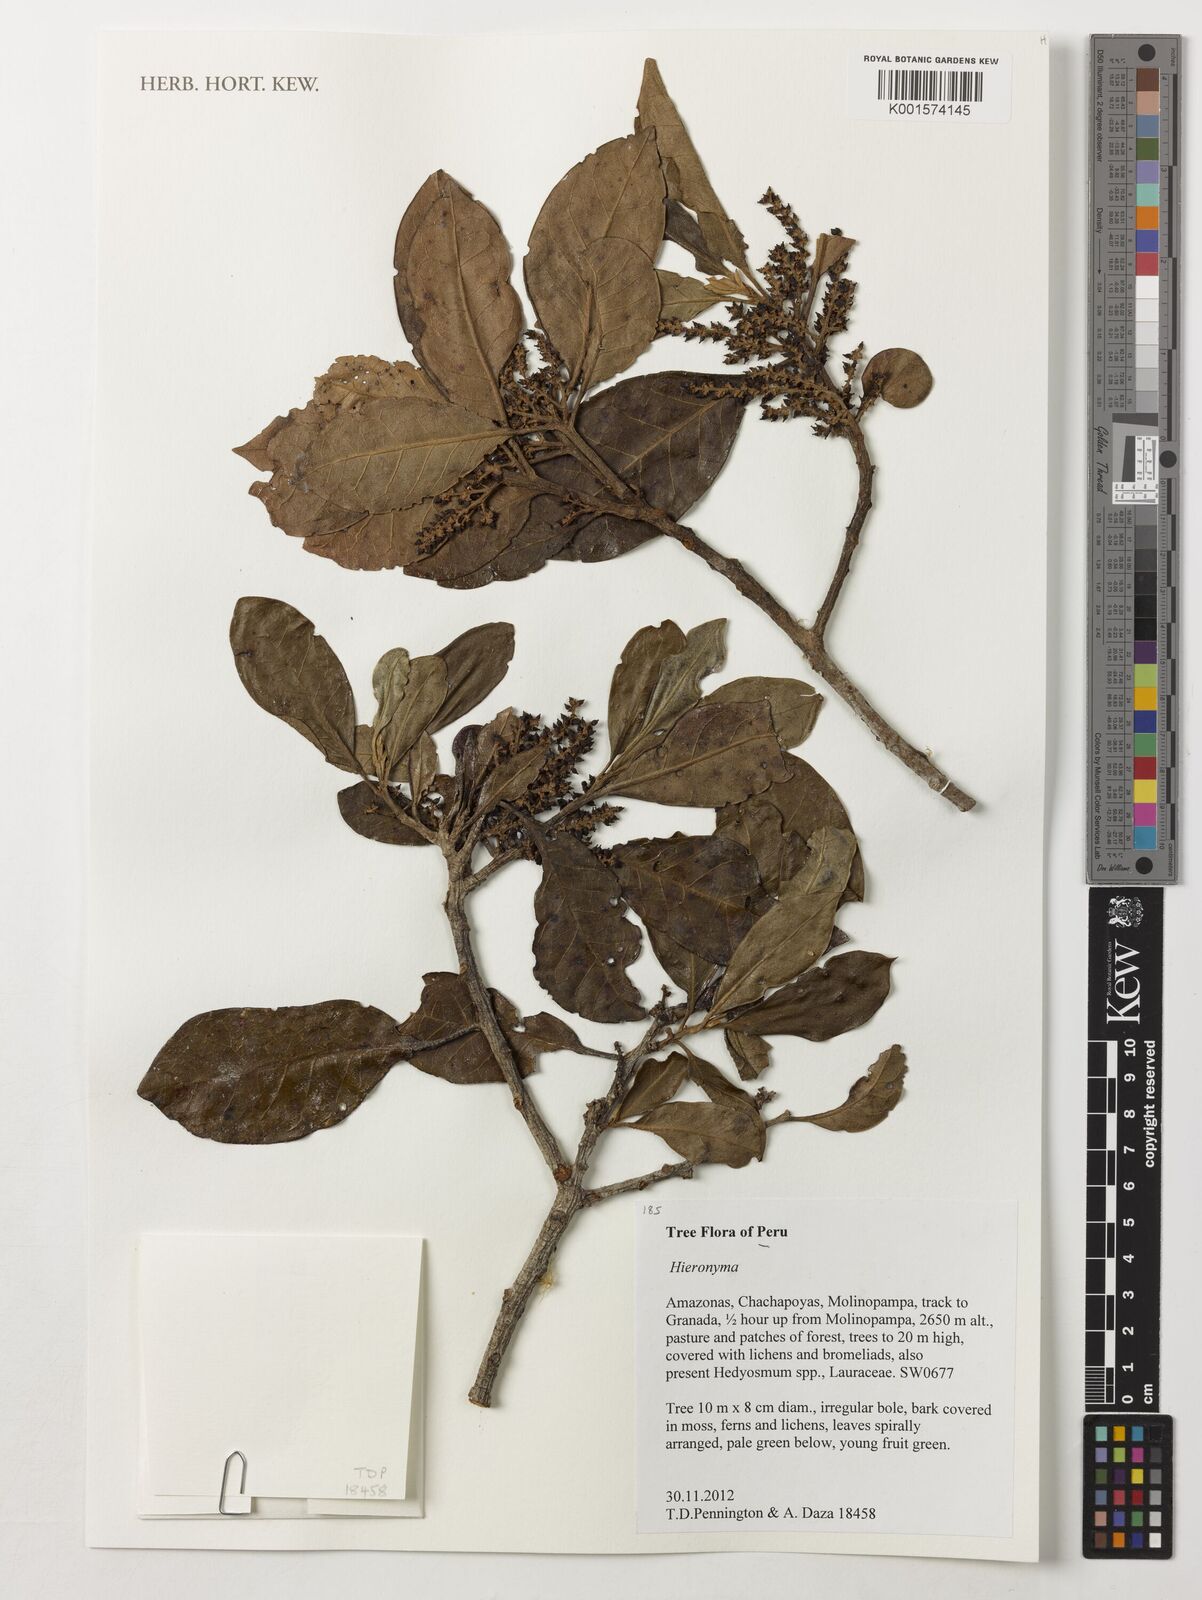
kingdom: Plantae
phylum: Tracheophyta
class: Magnoliopsida
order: Malpighiales
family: Phyllanthaceae
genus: Hieronyma
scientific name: Hieronyma
